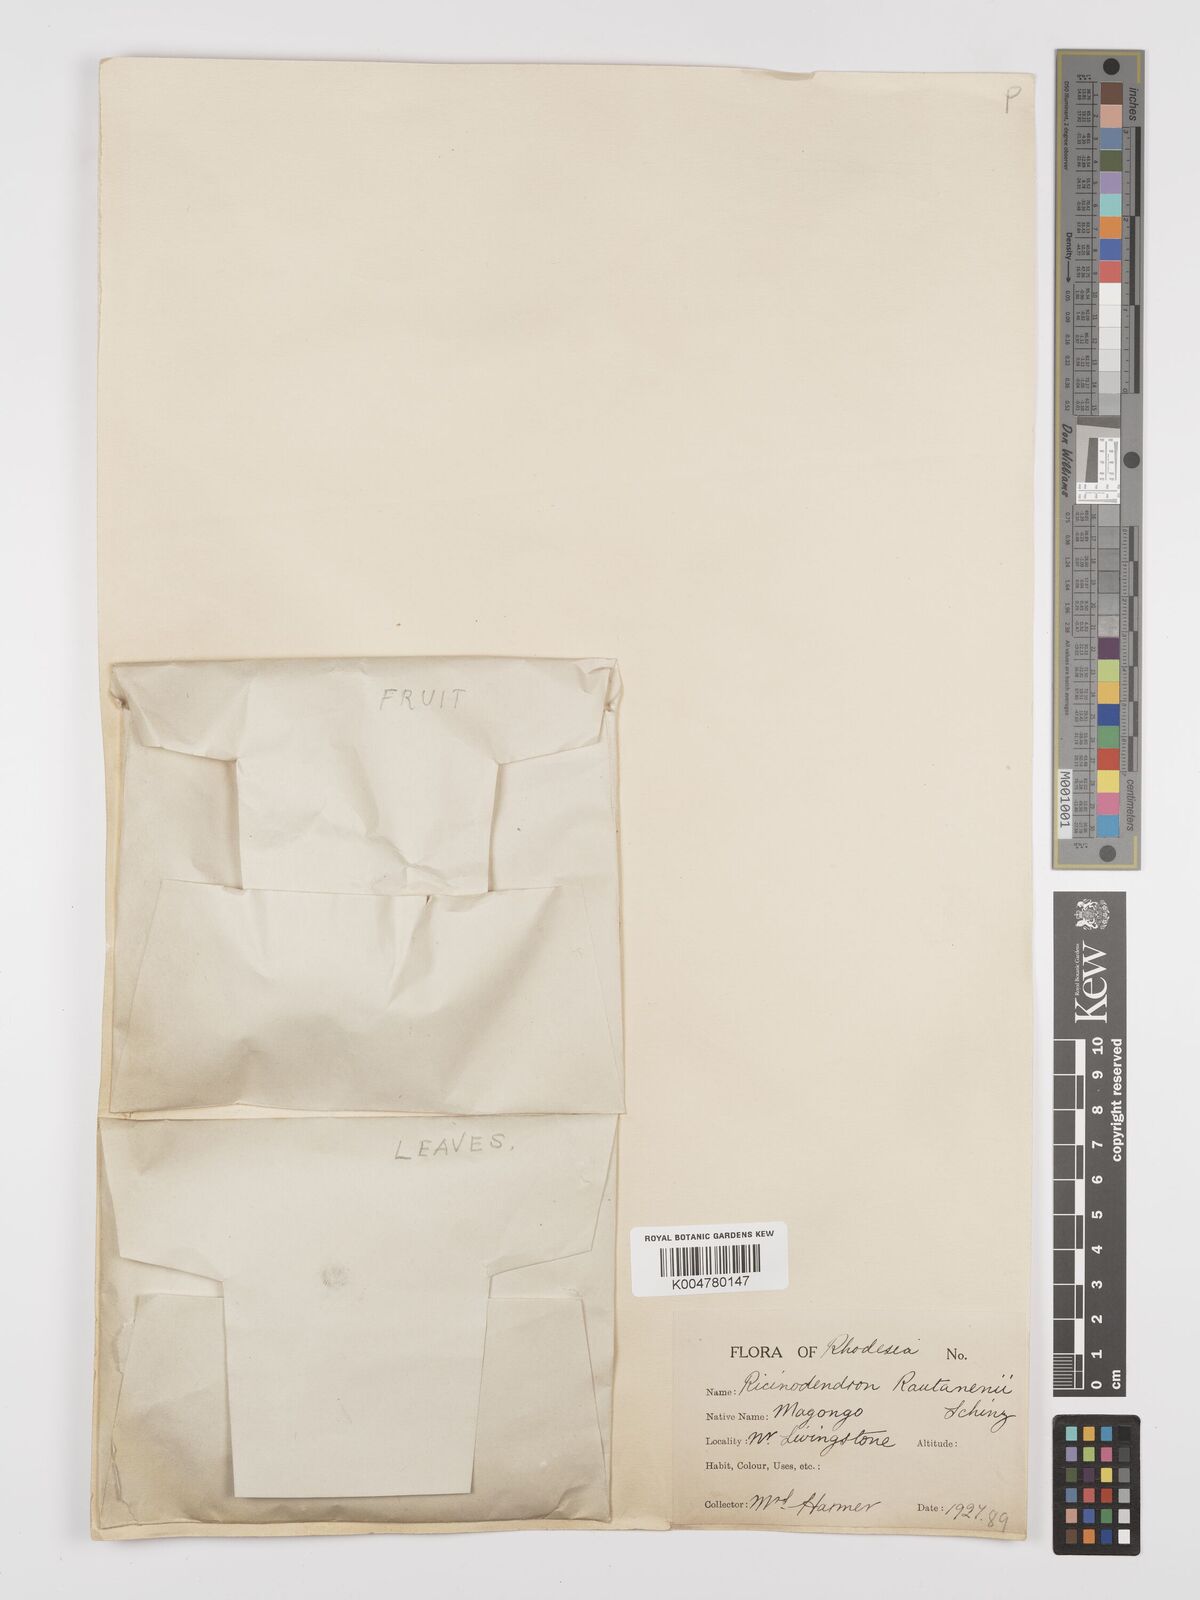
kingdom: Plantae
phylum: Tracheophyta
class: Magnoliopsida
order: Malpighiales
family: Euphorbiaceae
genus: Schinziophyton
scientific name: Schinziophyton rautanenii
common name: Manketti
